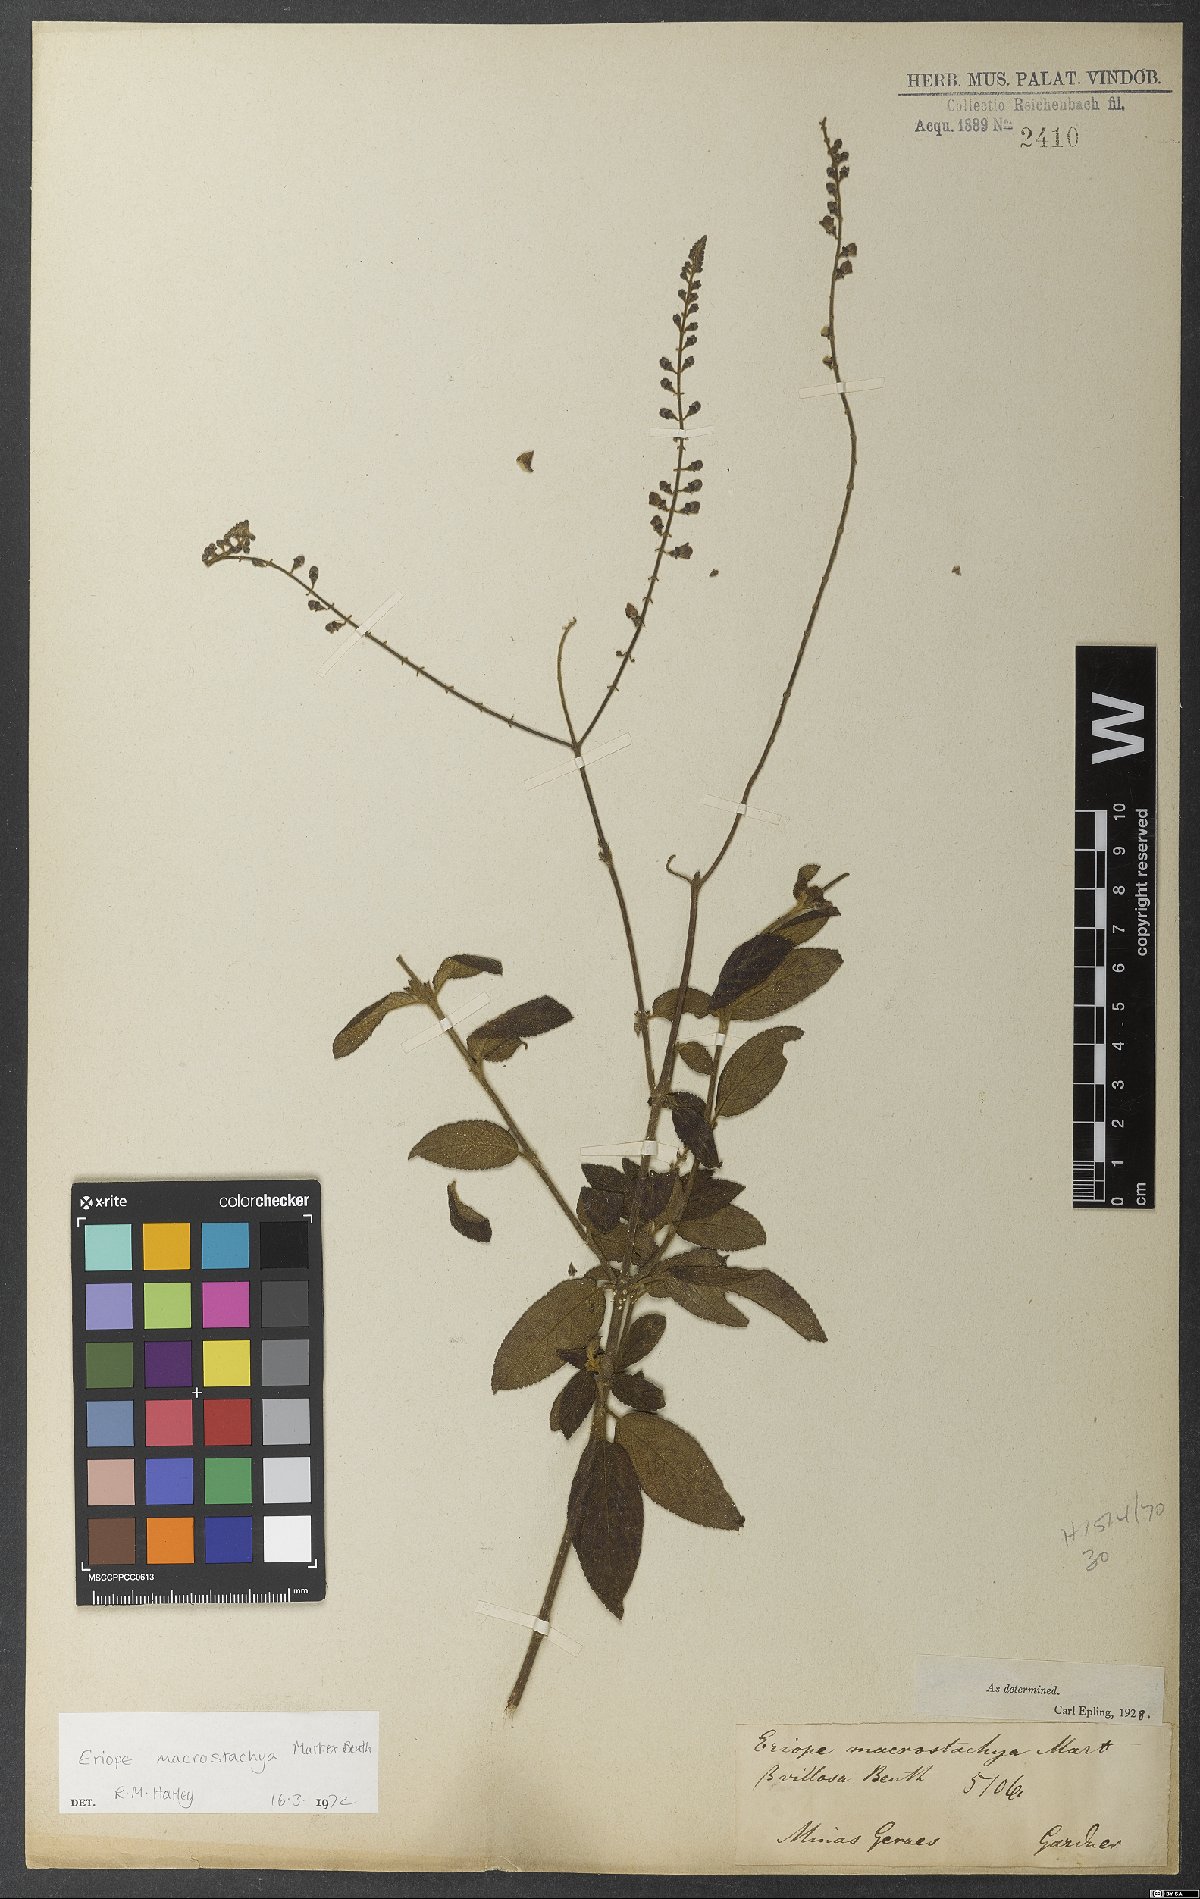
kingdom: Plantae
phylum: Tracheophyta
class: Magnoliopsida
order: Lamiales
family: Lamiaceae
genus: Eriope
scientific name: Eriope macrostachya
